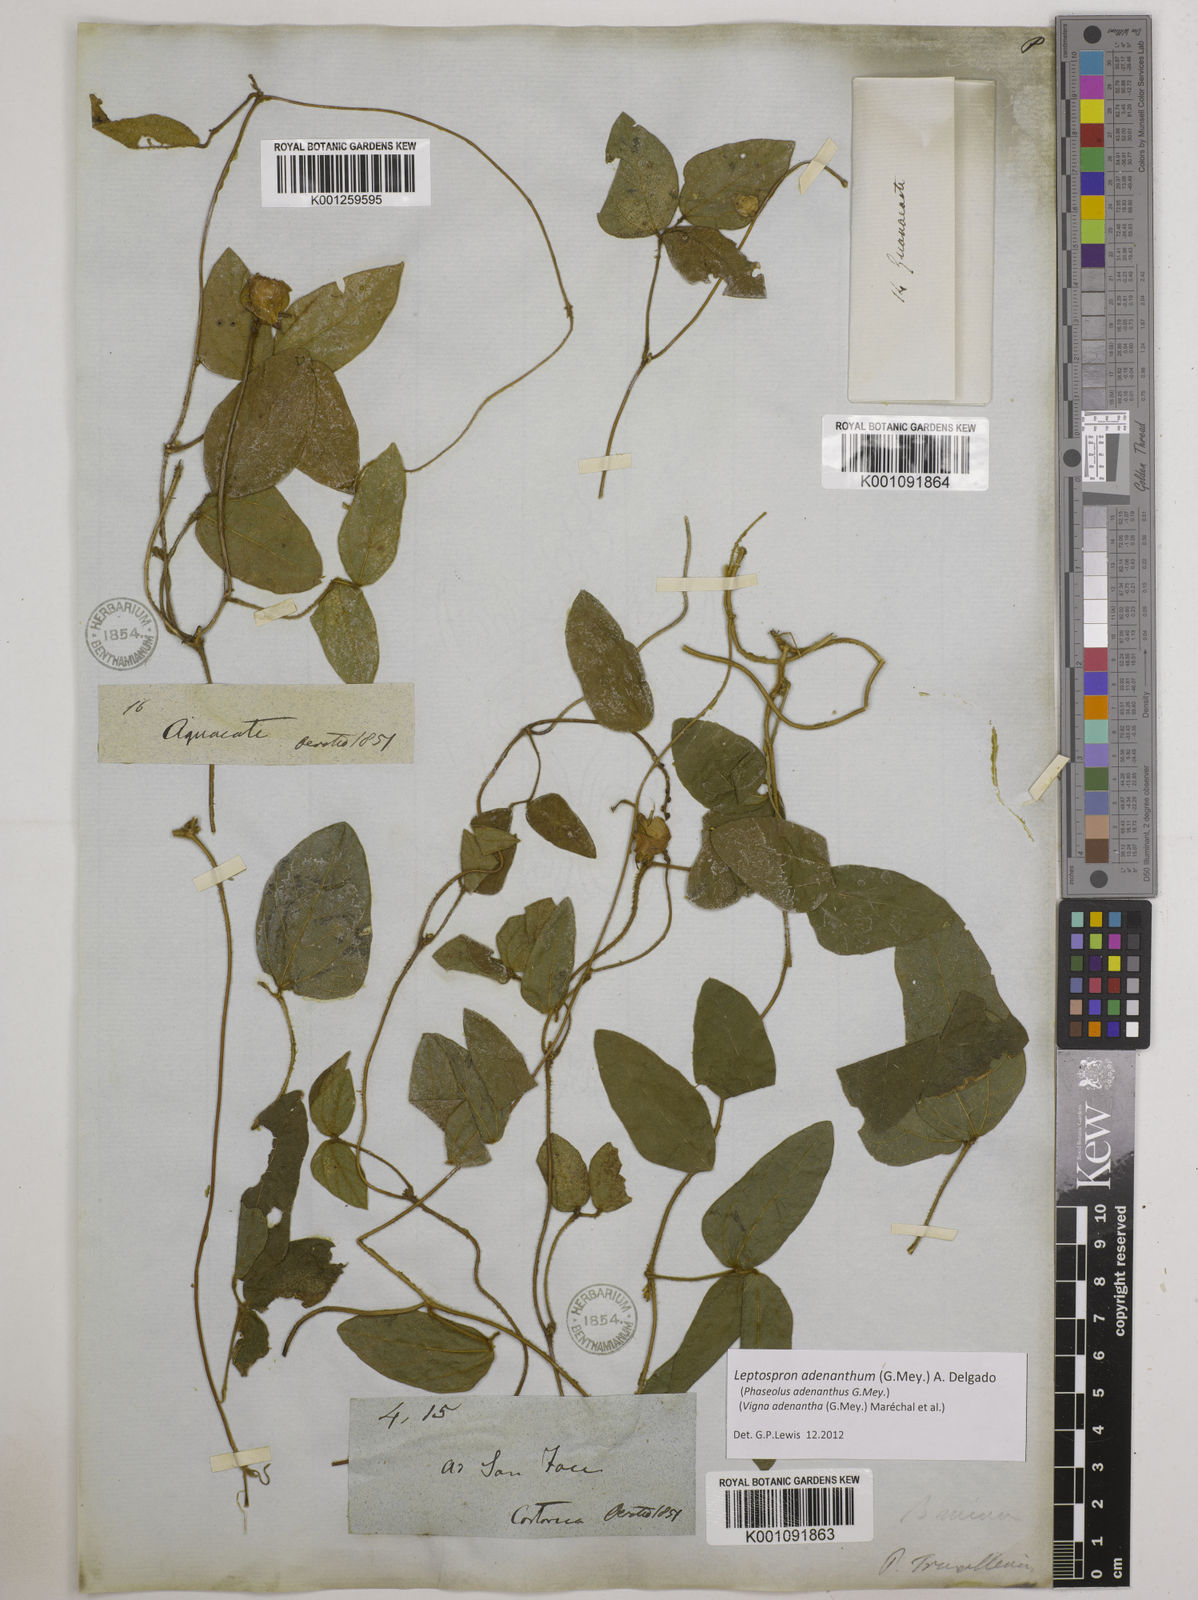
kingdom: Plantae
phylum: Tracheophyta
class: Magnoliopsida
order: Fabales
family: Fabaceae
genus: Leptospron
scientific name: Leptospron adenanthum
